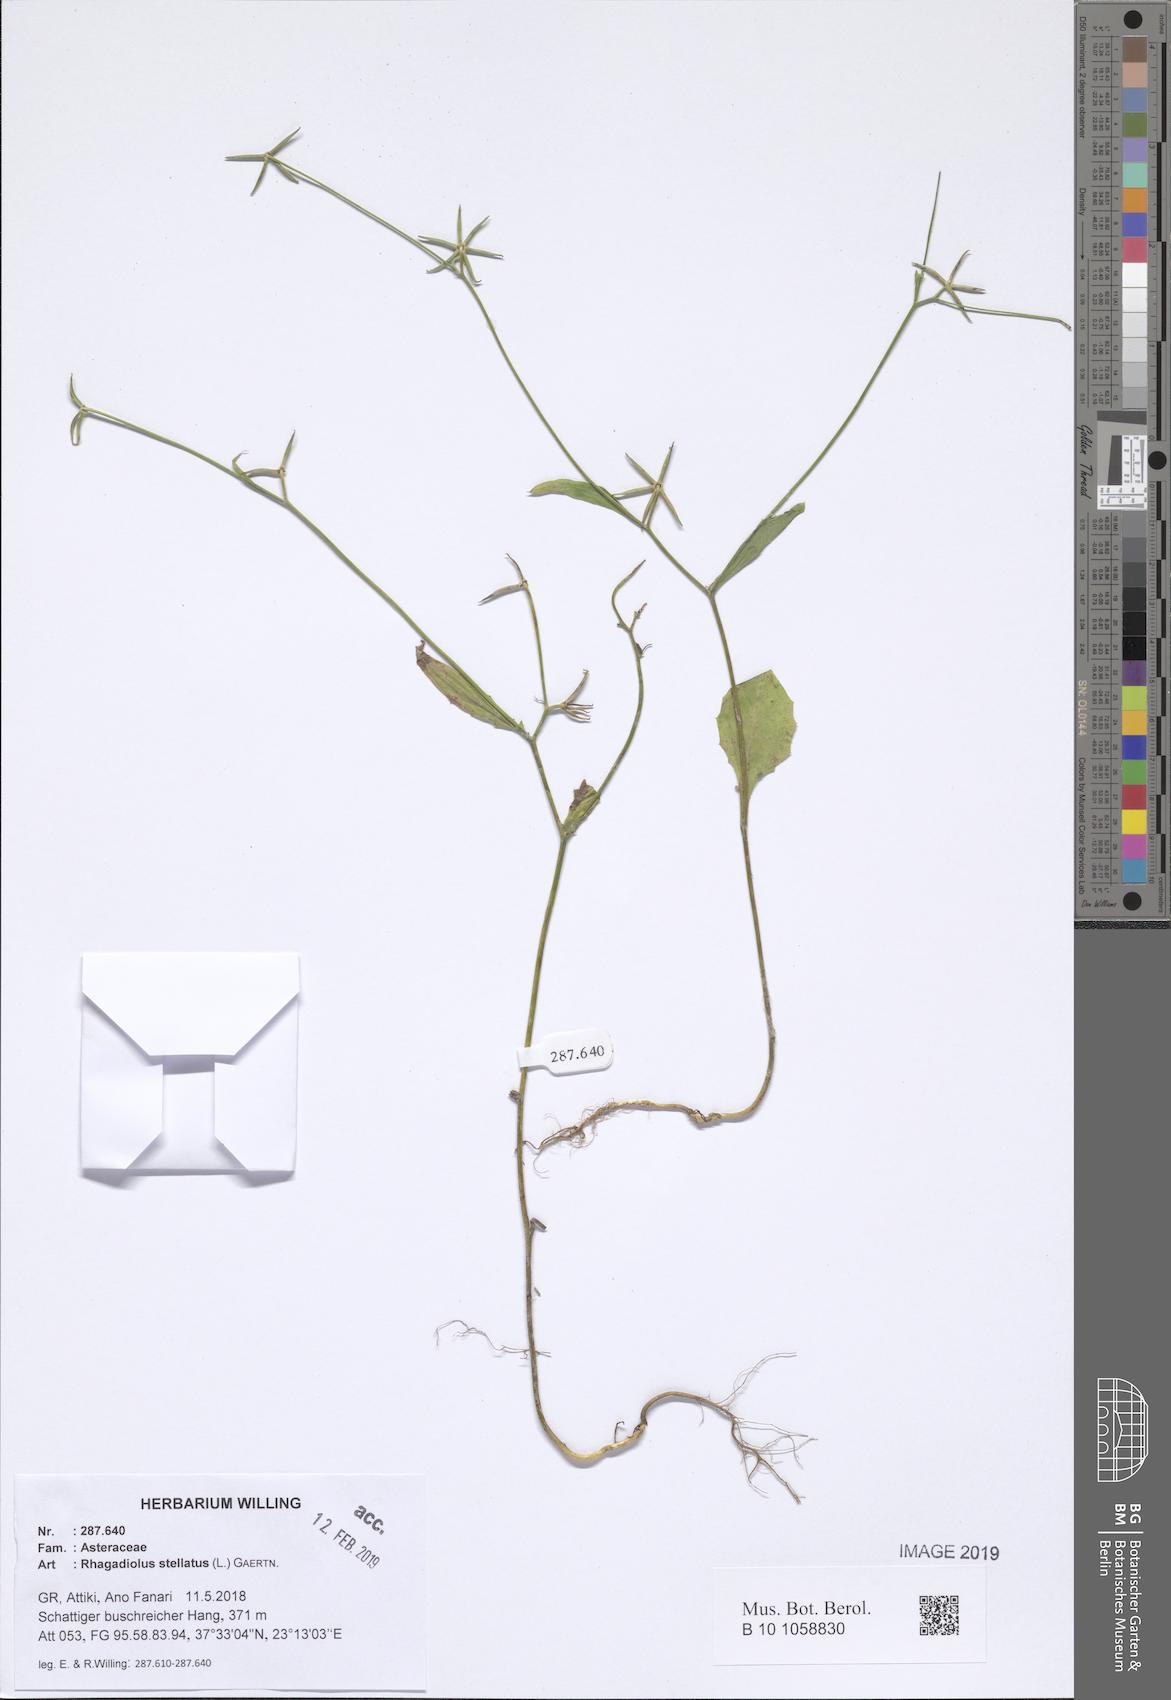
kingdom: Plantae
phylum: Tracheophyta
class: Magnoliopsida
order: Asterales
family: Asteraceae
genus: Rhagadiolus
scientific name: Rhagadiolus stellatus
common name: Star hawkbit
